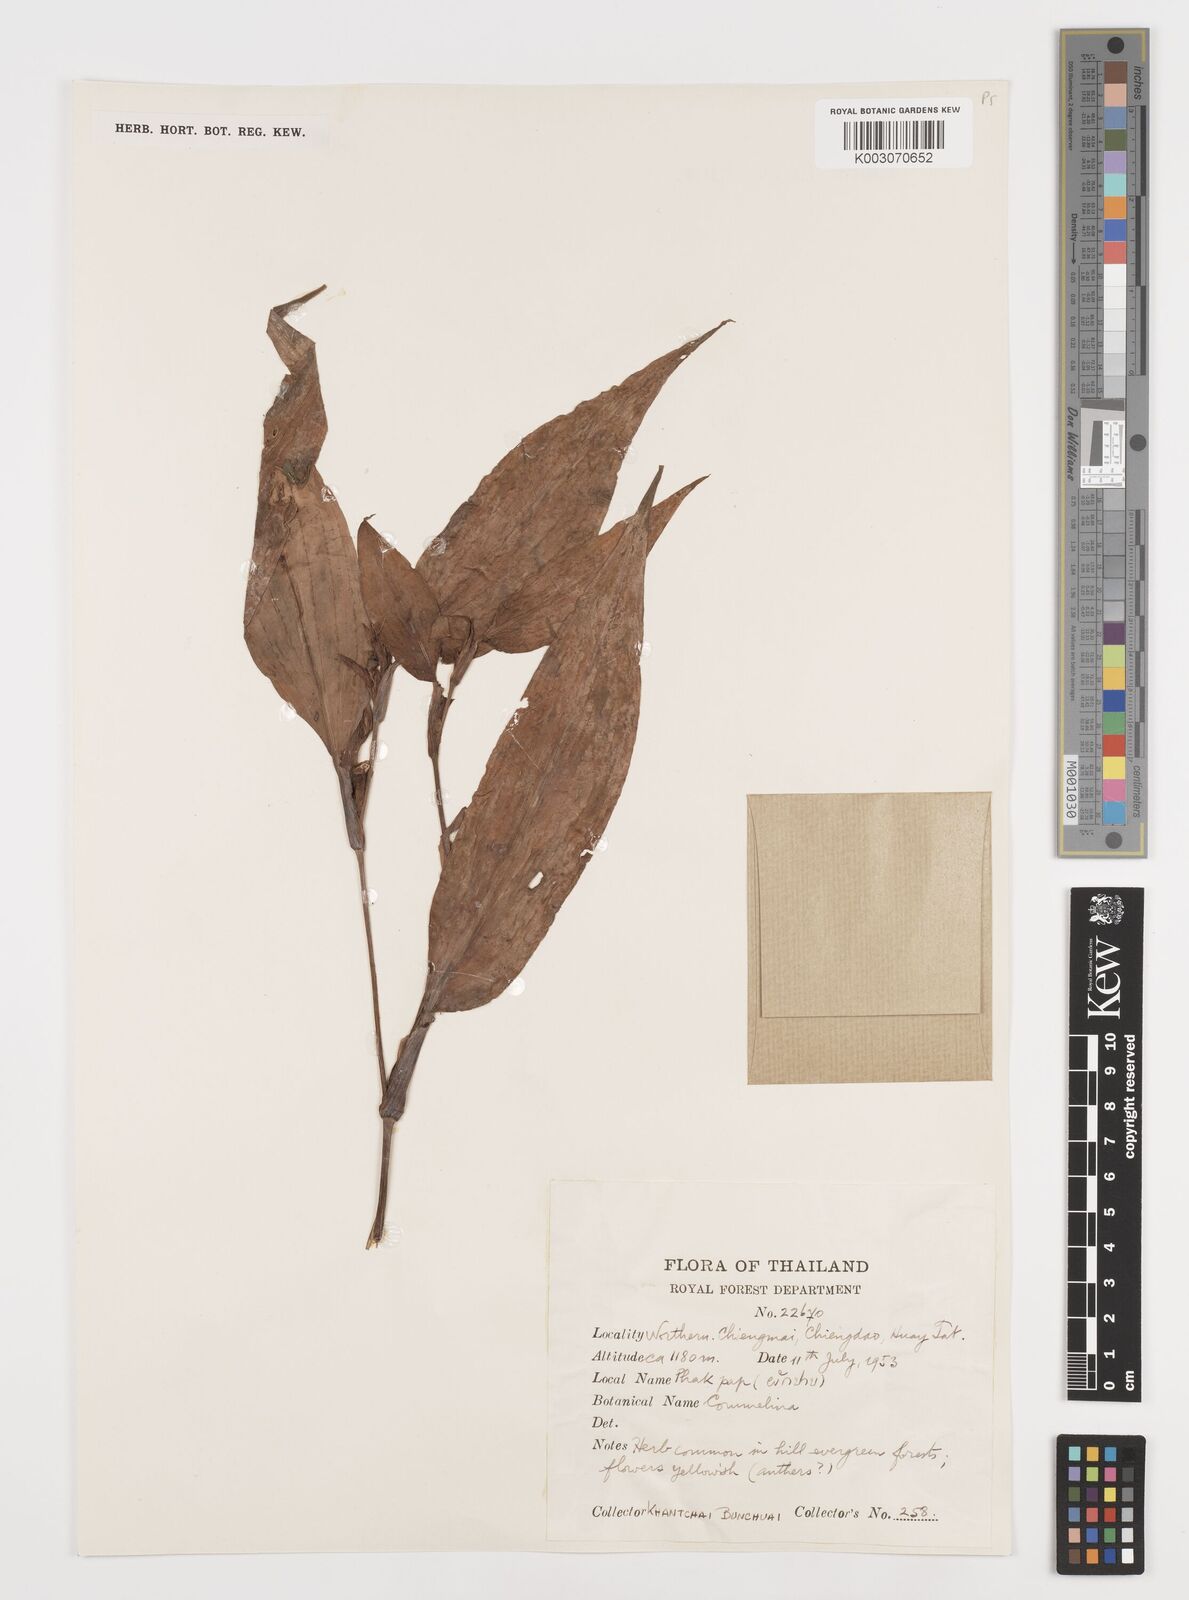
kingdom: Plantae
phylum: Tracheophyta
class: Liliopsida
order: Commelinales
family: Commelinaceae
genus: Commelina
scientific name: Commelina
